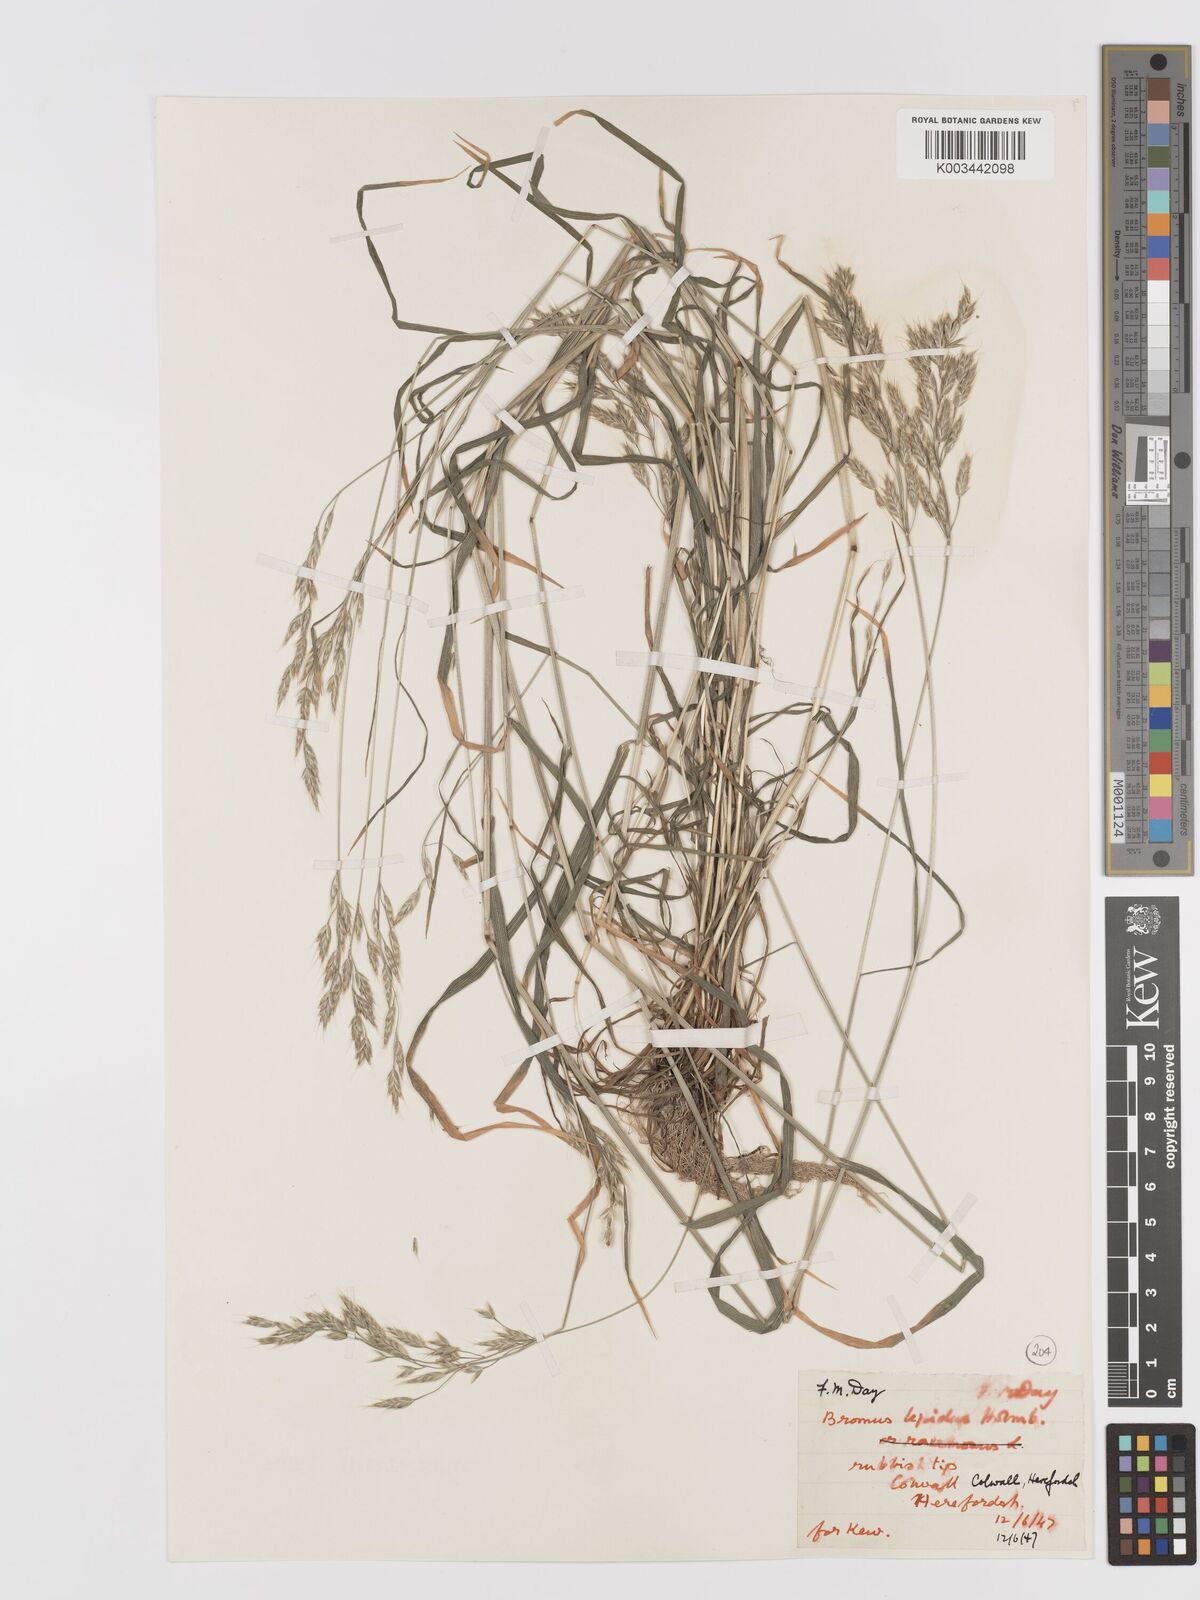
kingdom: Plantae
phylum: Tracheophyta
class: Liliopsida
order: Poales
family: Poaceae
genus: Bromus
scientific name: Bromus lepidus
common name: Slender soft-brome
